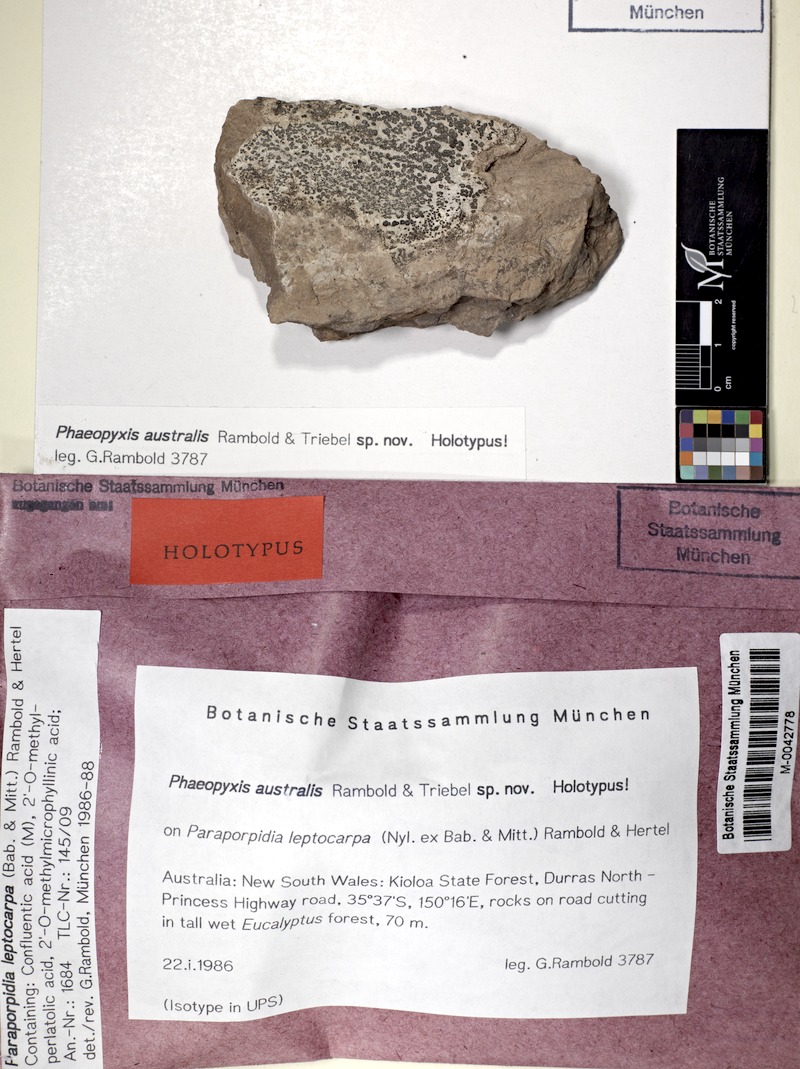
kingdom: Fungi
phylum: Ascomycota
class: Lecanoromycetes
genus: Bachmanniomyces
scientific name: Bachmanniomyces australis
